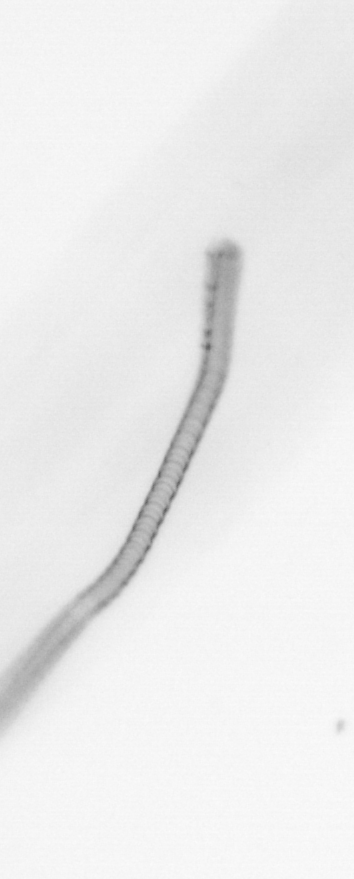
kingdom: Chromista
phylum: Ochrophyta
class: Bacillariophyceae
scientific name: Bacillariophyceae
